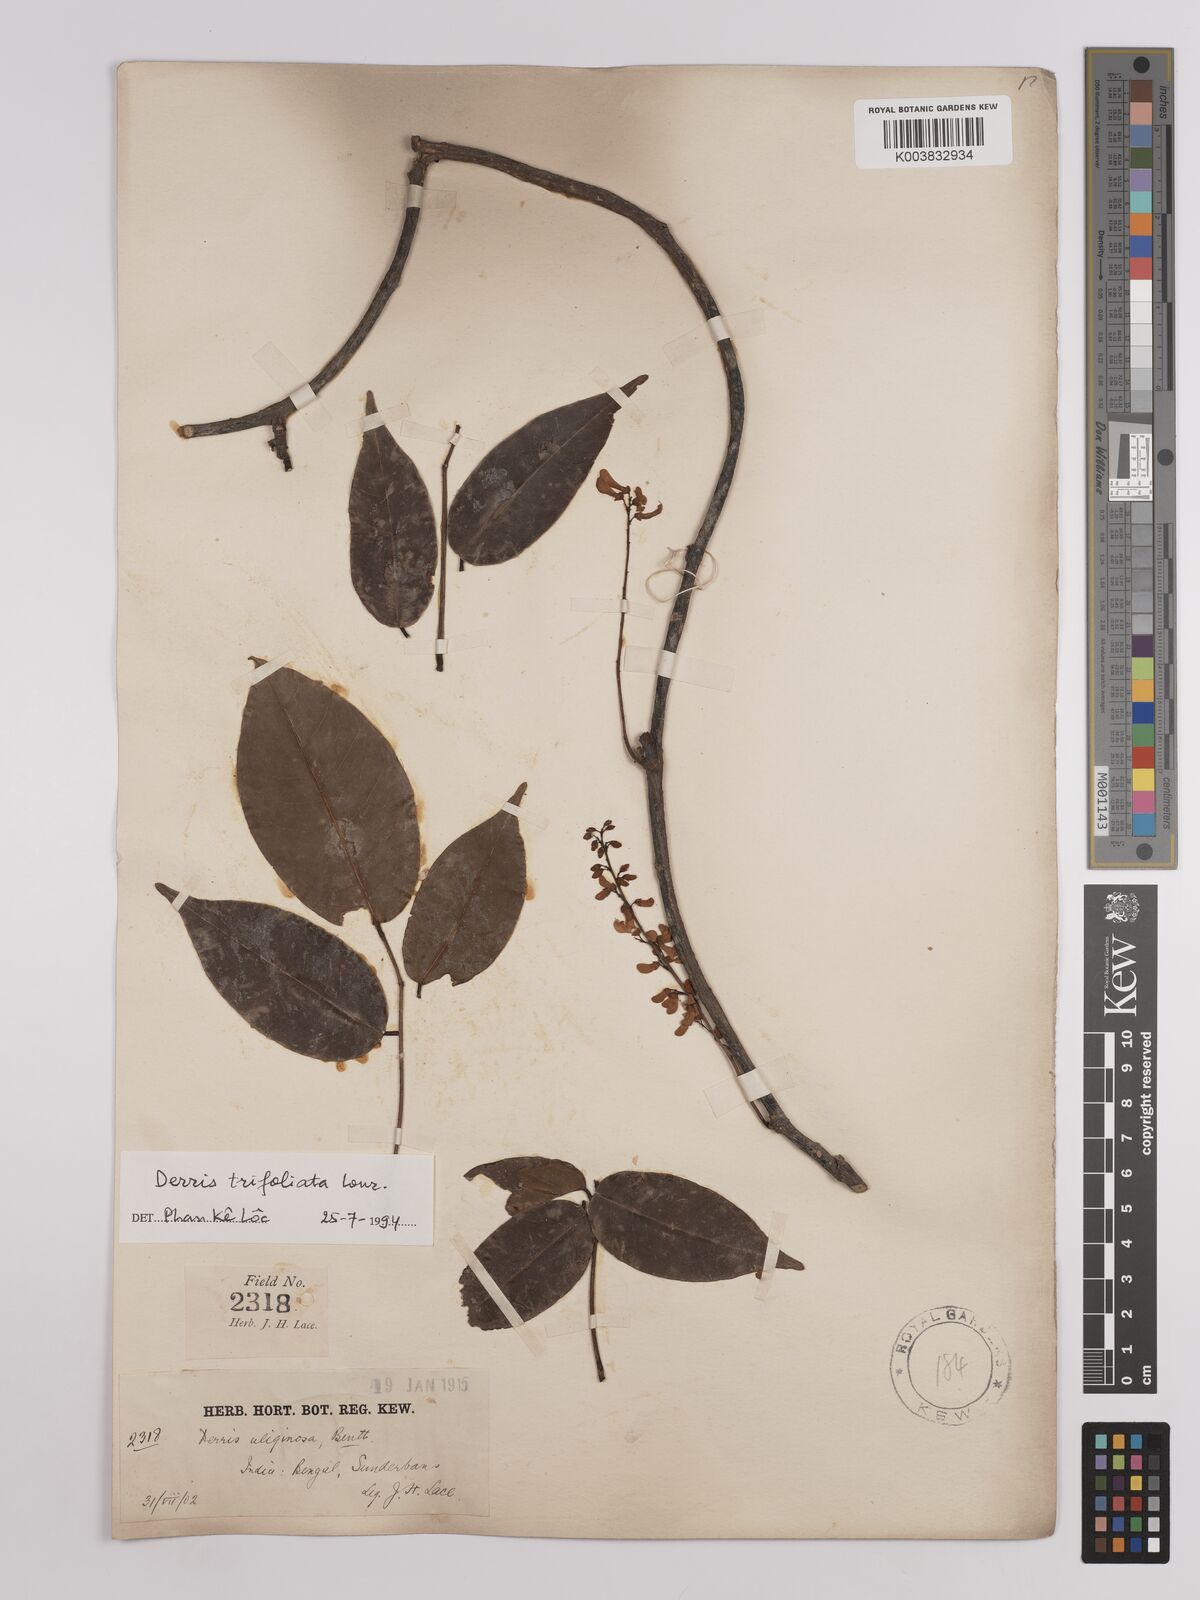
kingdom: Plantae
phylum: Tracheophyta
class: Magnoliopsida
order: Fabales
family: Fabaceae
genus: Derris
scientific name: Derris trifoliata
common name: Three-leaf derris
